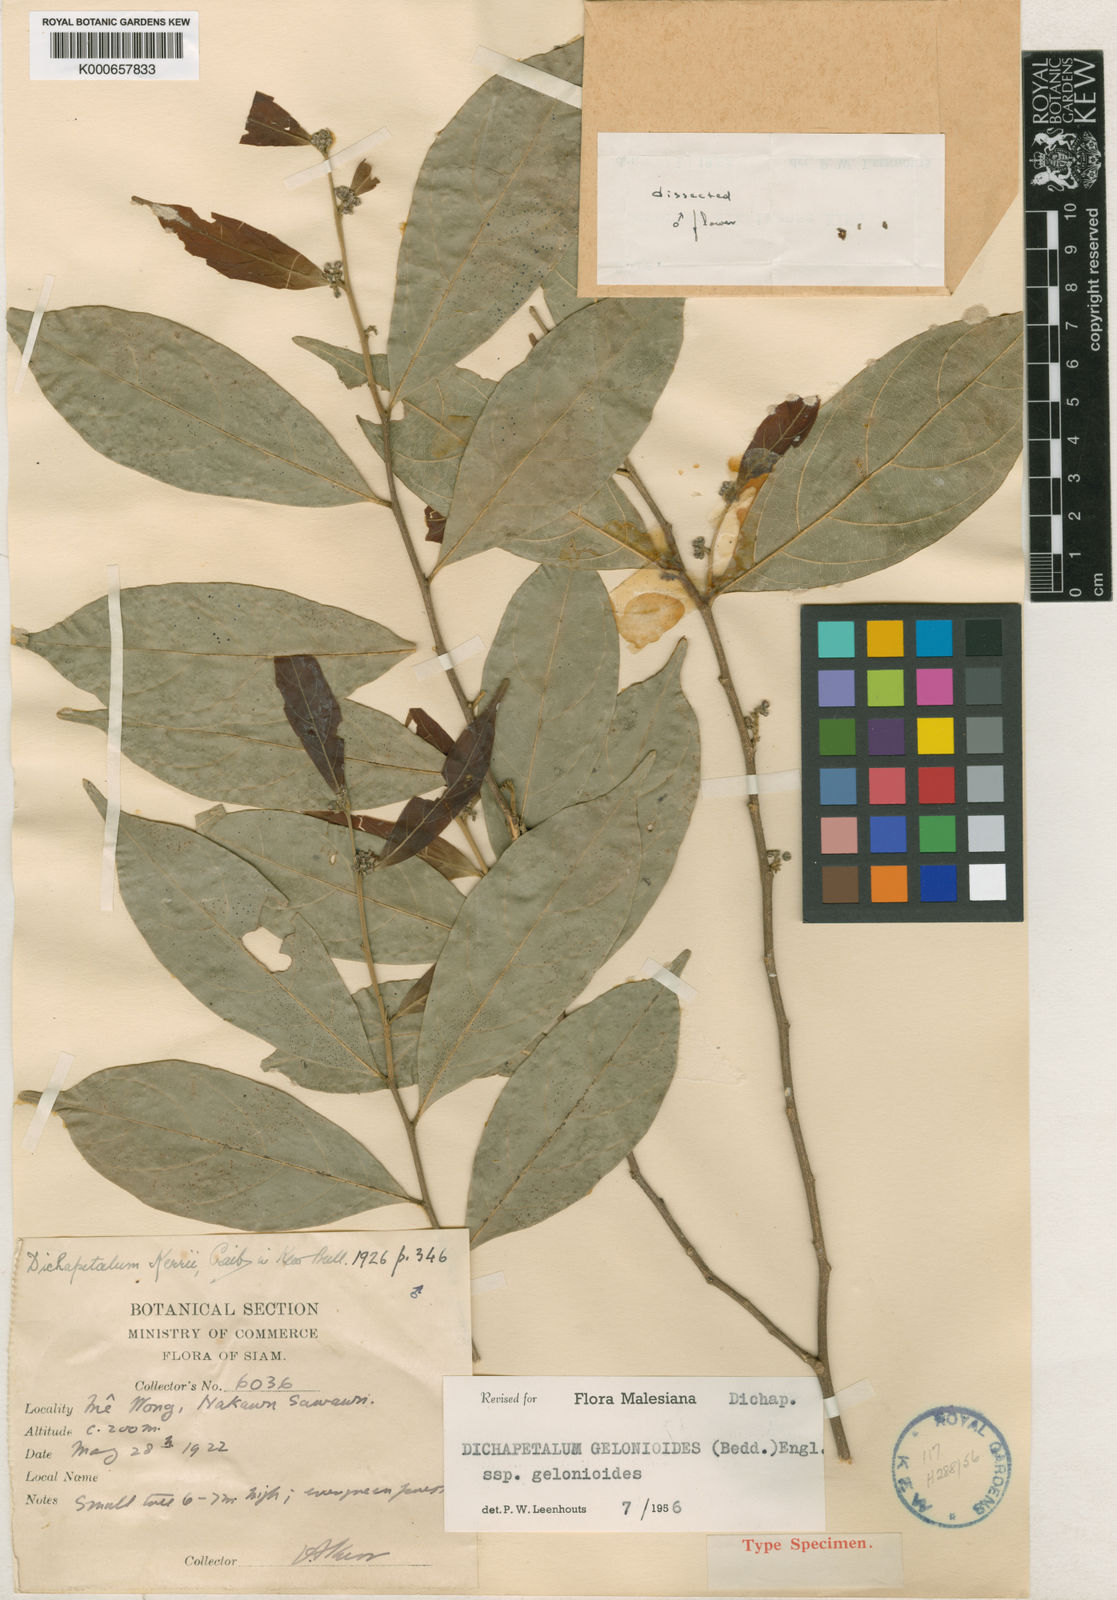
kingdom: Plantae
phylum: Tracheophyta
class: Magnoliopsida
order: Malpighiales
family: Dichapetalaceae
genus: Dichapetalum
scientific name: Dichapetalum gelonioides
